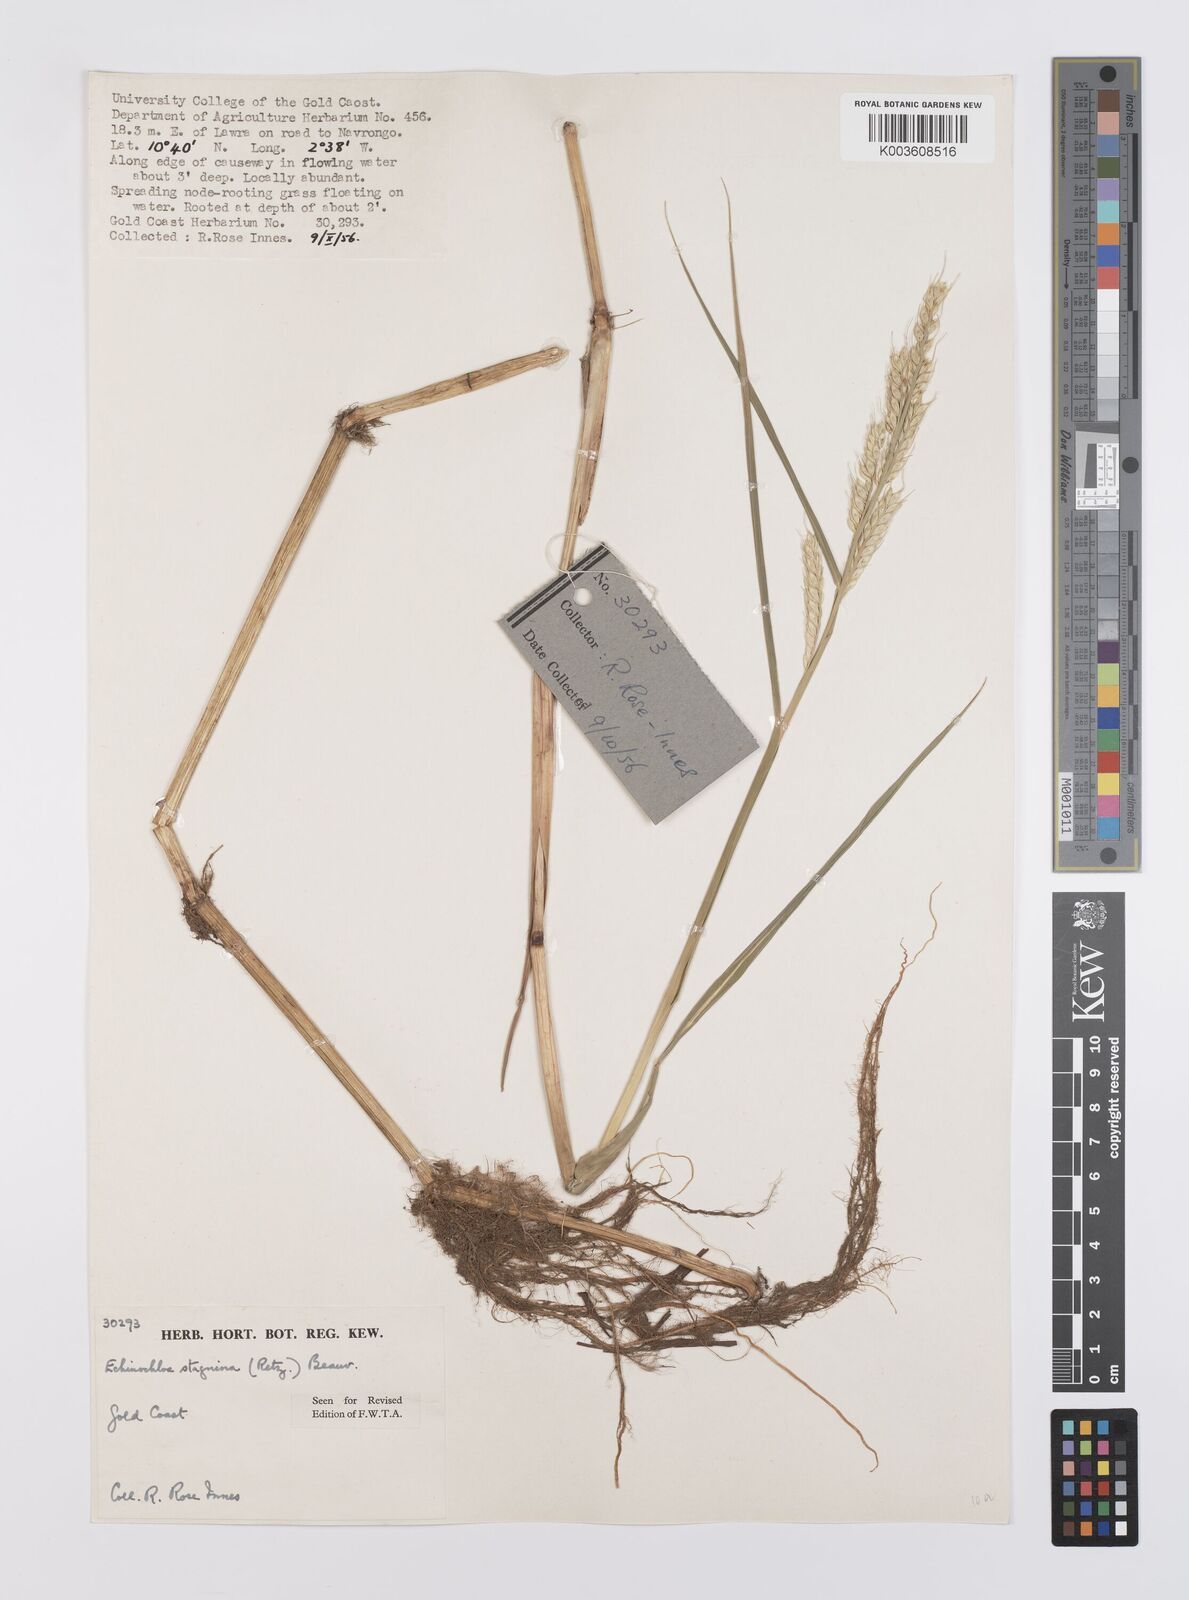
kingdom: Plantae
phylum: Tracheophyta
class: Liliopsida
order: Poales
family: Poaceae
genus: Echinochloa
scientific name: Echinochloa stagnina
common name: Burgu grass
